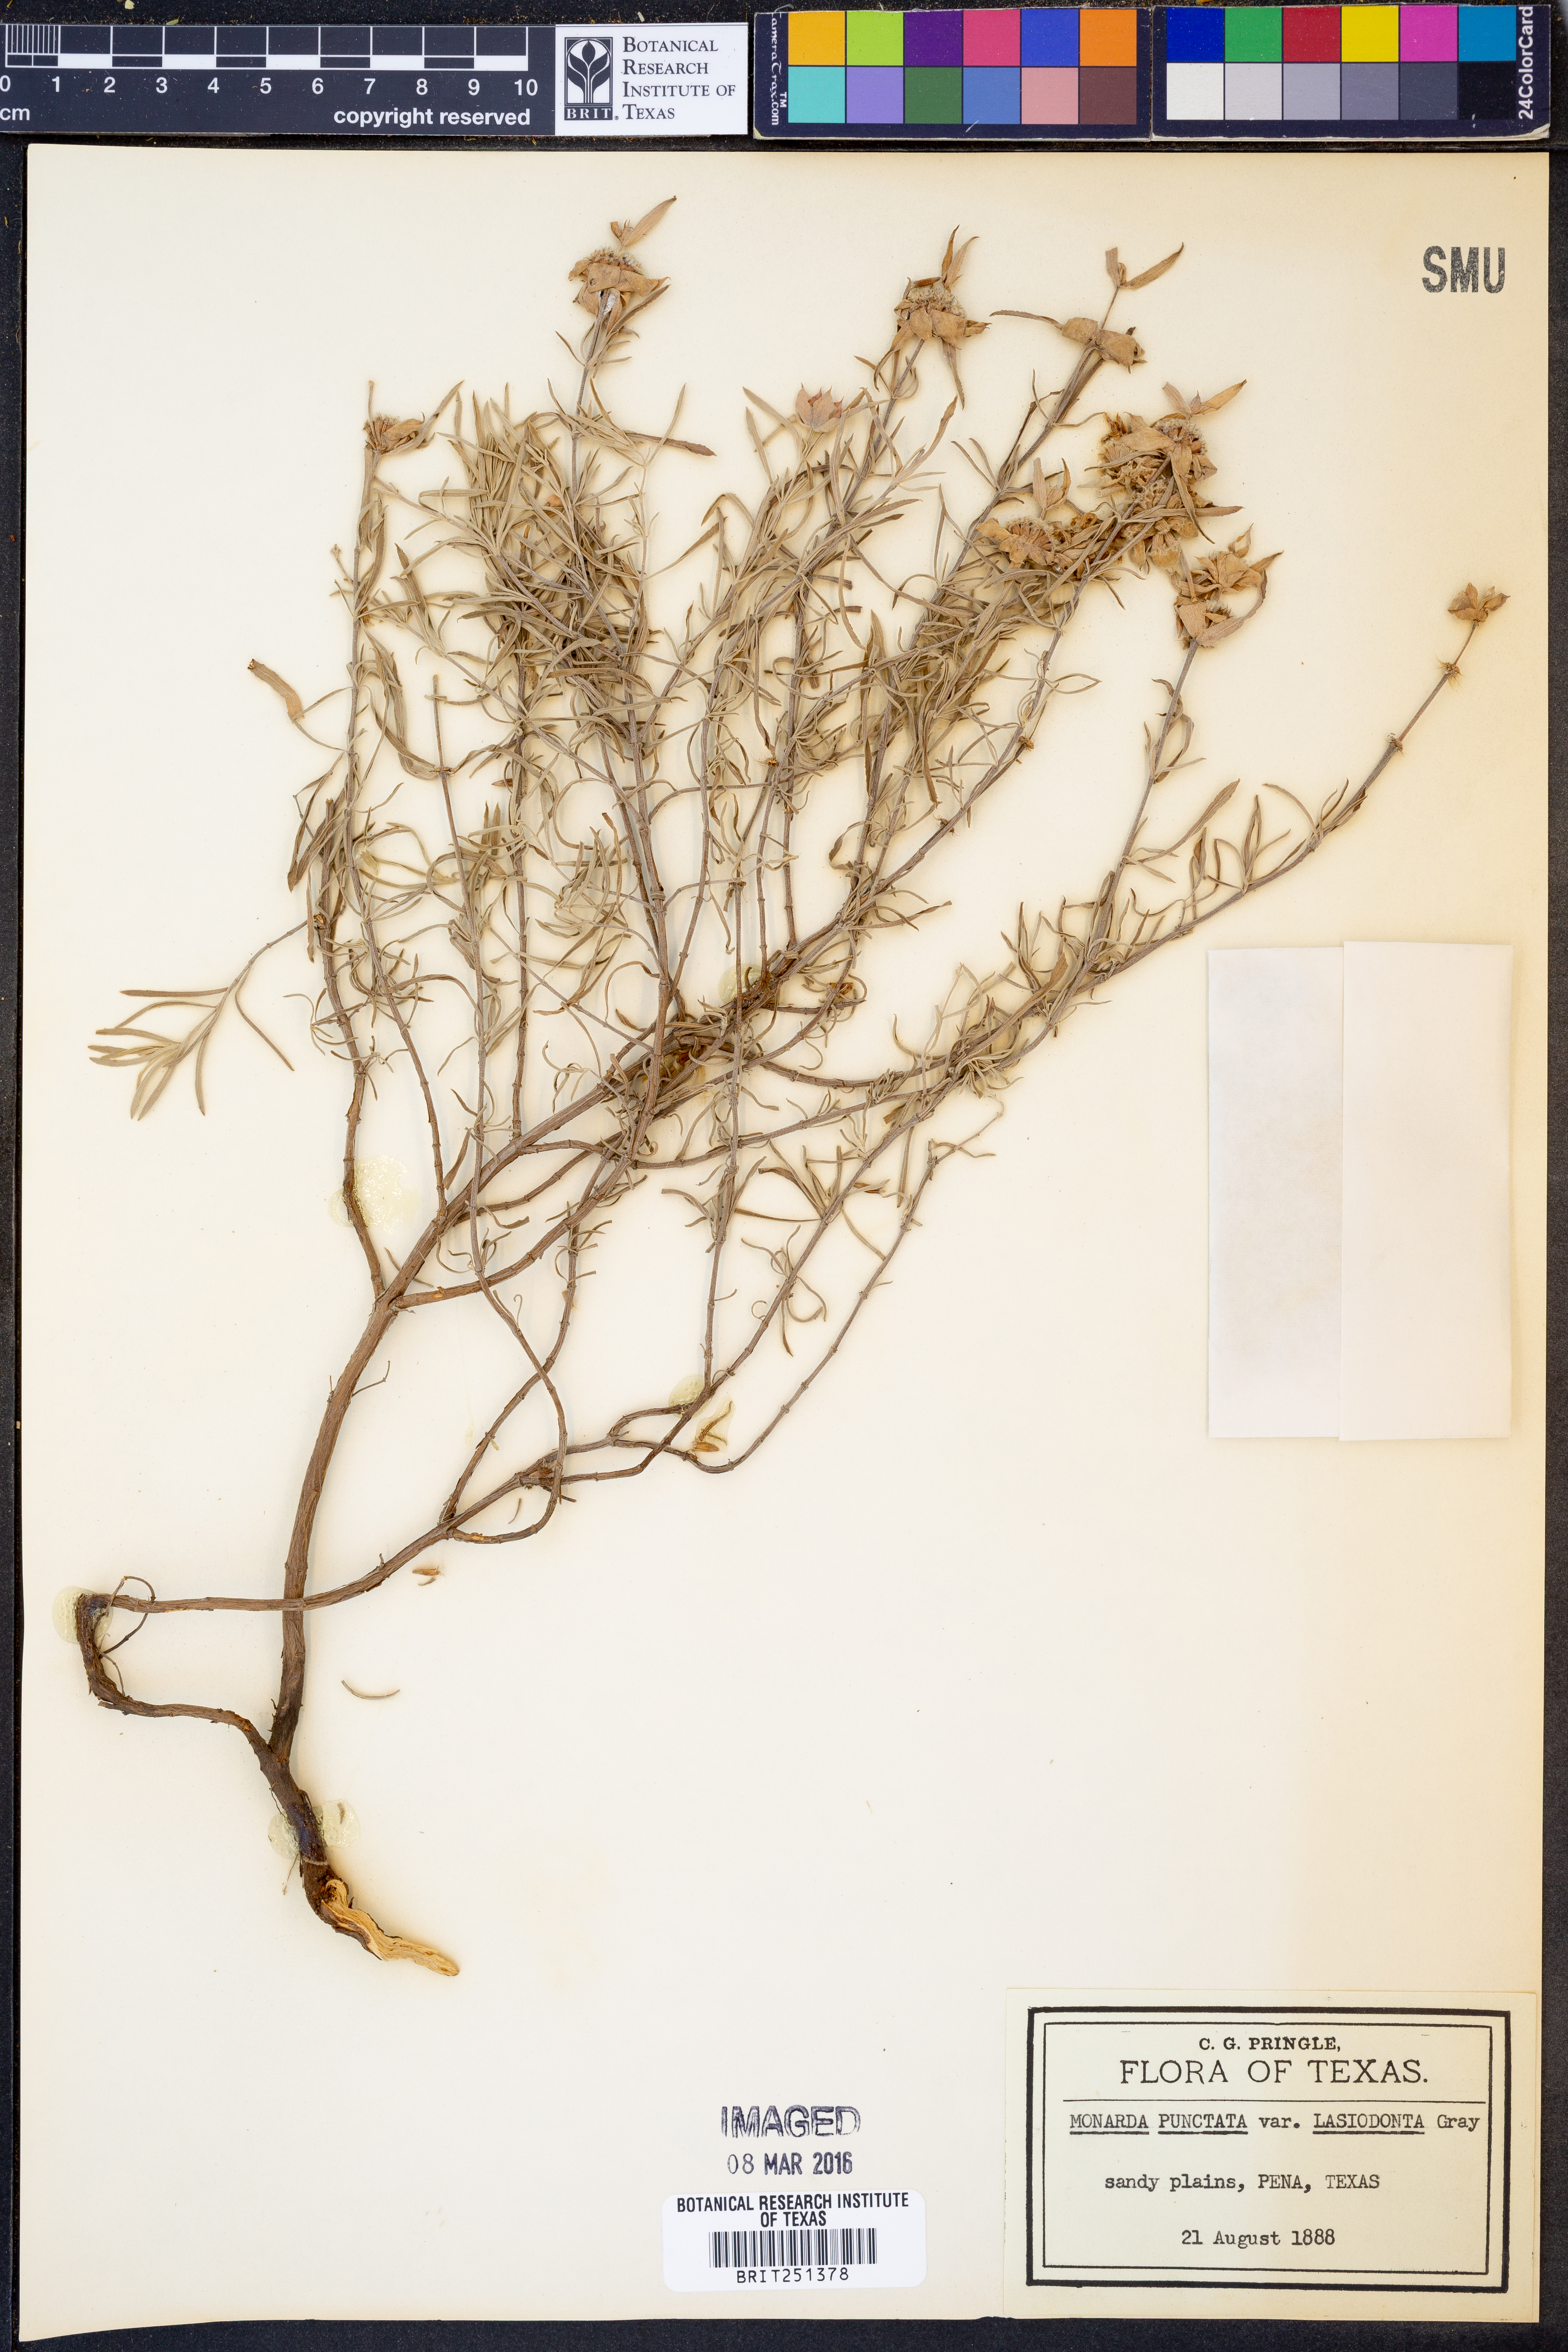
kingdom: Plantae
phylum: Tracheophyta
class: Magnoliopsida
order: Lamiales
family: Lamiaceae
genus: Monarda
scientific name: Monarda punctata
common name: Dotted monarda
